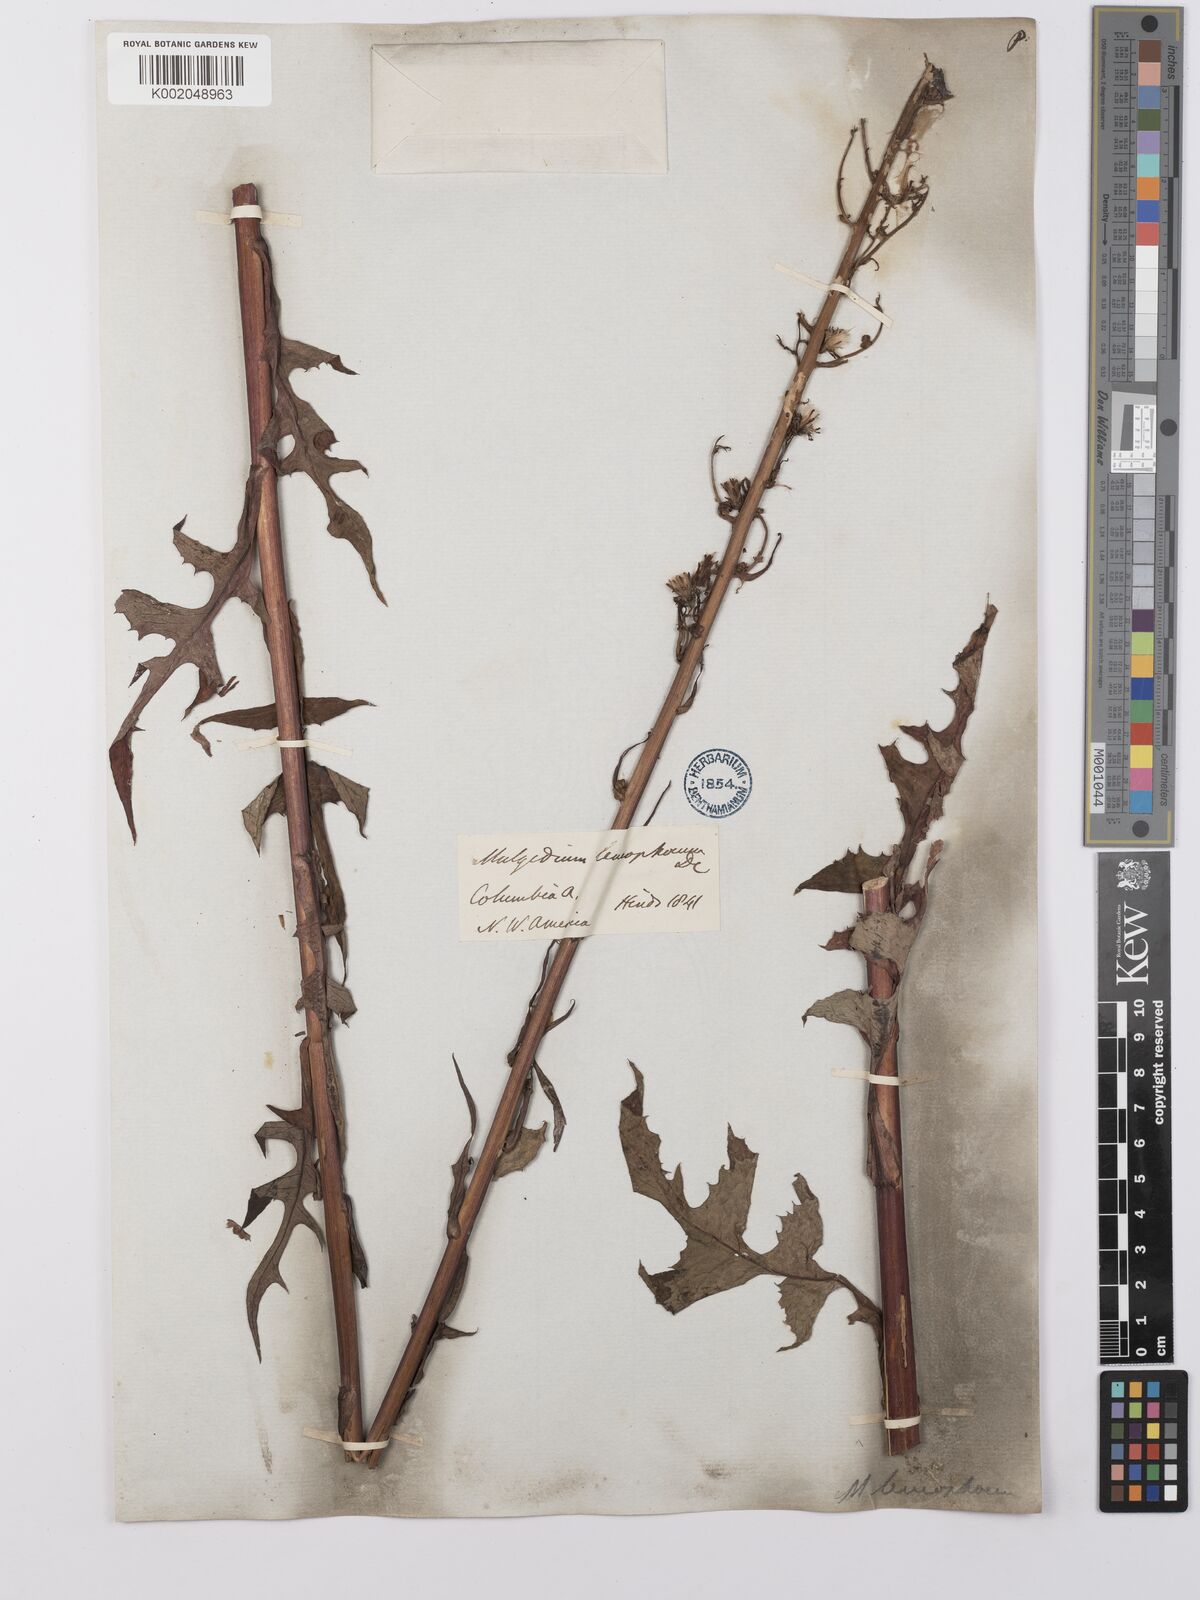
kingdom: Plantae
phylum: Tracheophyta
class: Magnoliopsida
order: Asterales
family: Asteraceae
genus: Lactuca
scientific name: Lactuca
